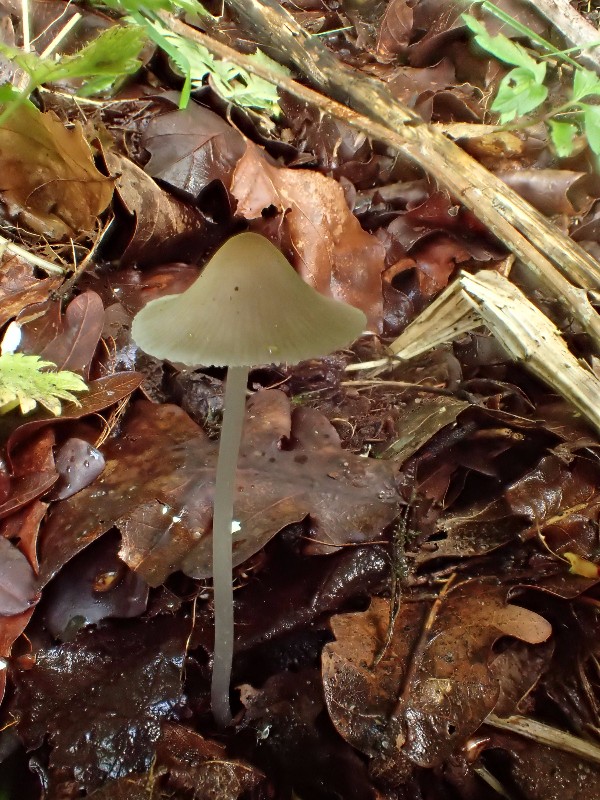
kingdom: Fungi
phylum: Basidiomycota
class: Agaricomycetes
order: Agaricales
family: Mycenaceae
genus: Mycena
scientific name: Mycena vitilis
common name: blankstokket huesvamp
